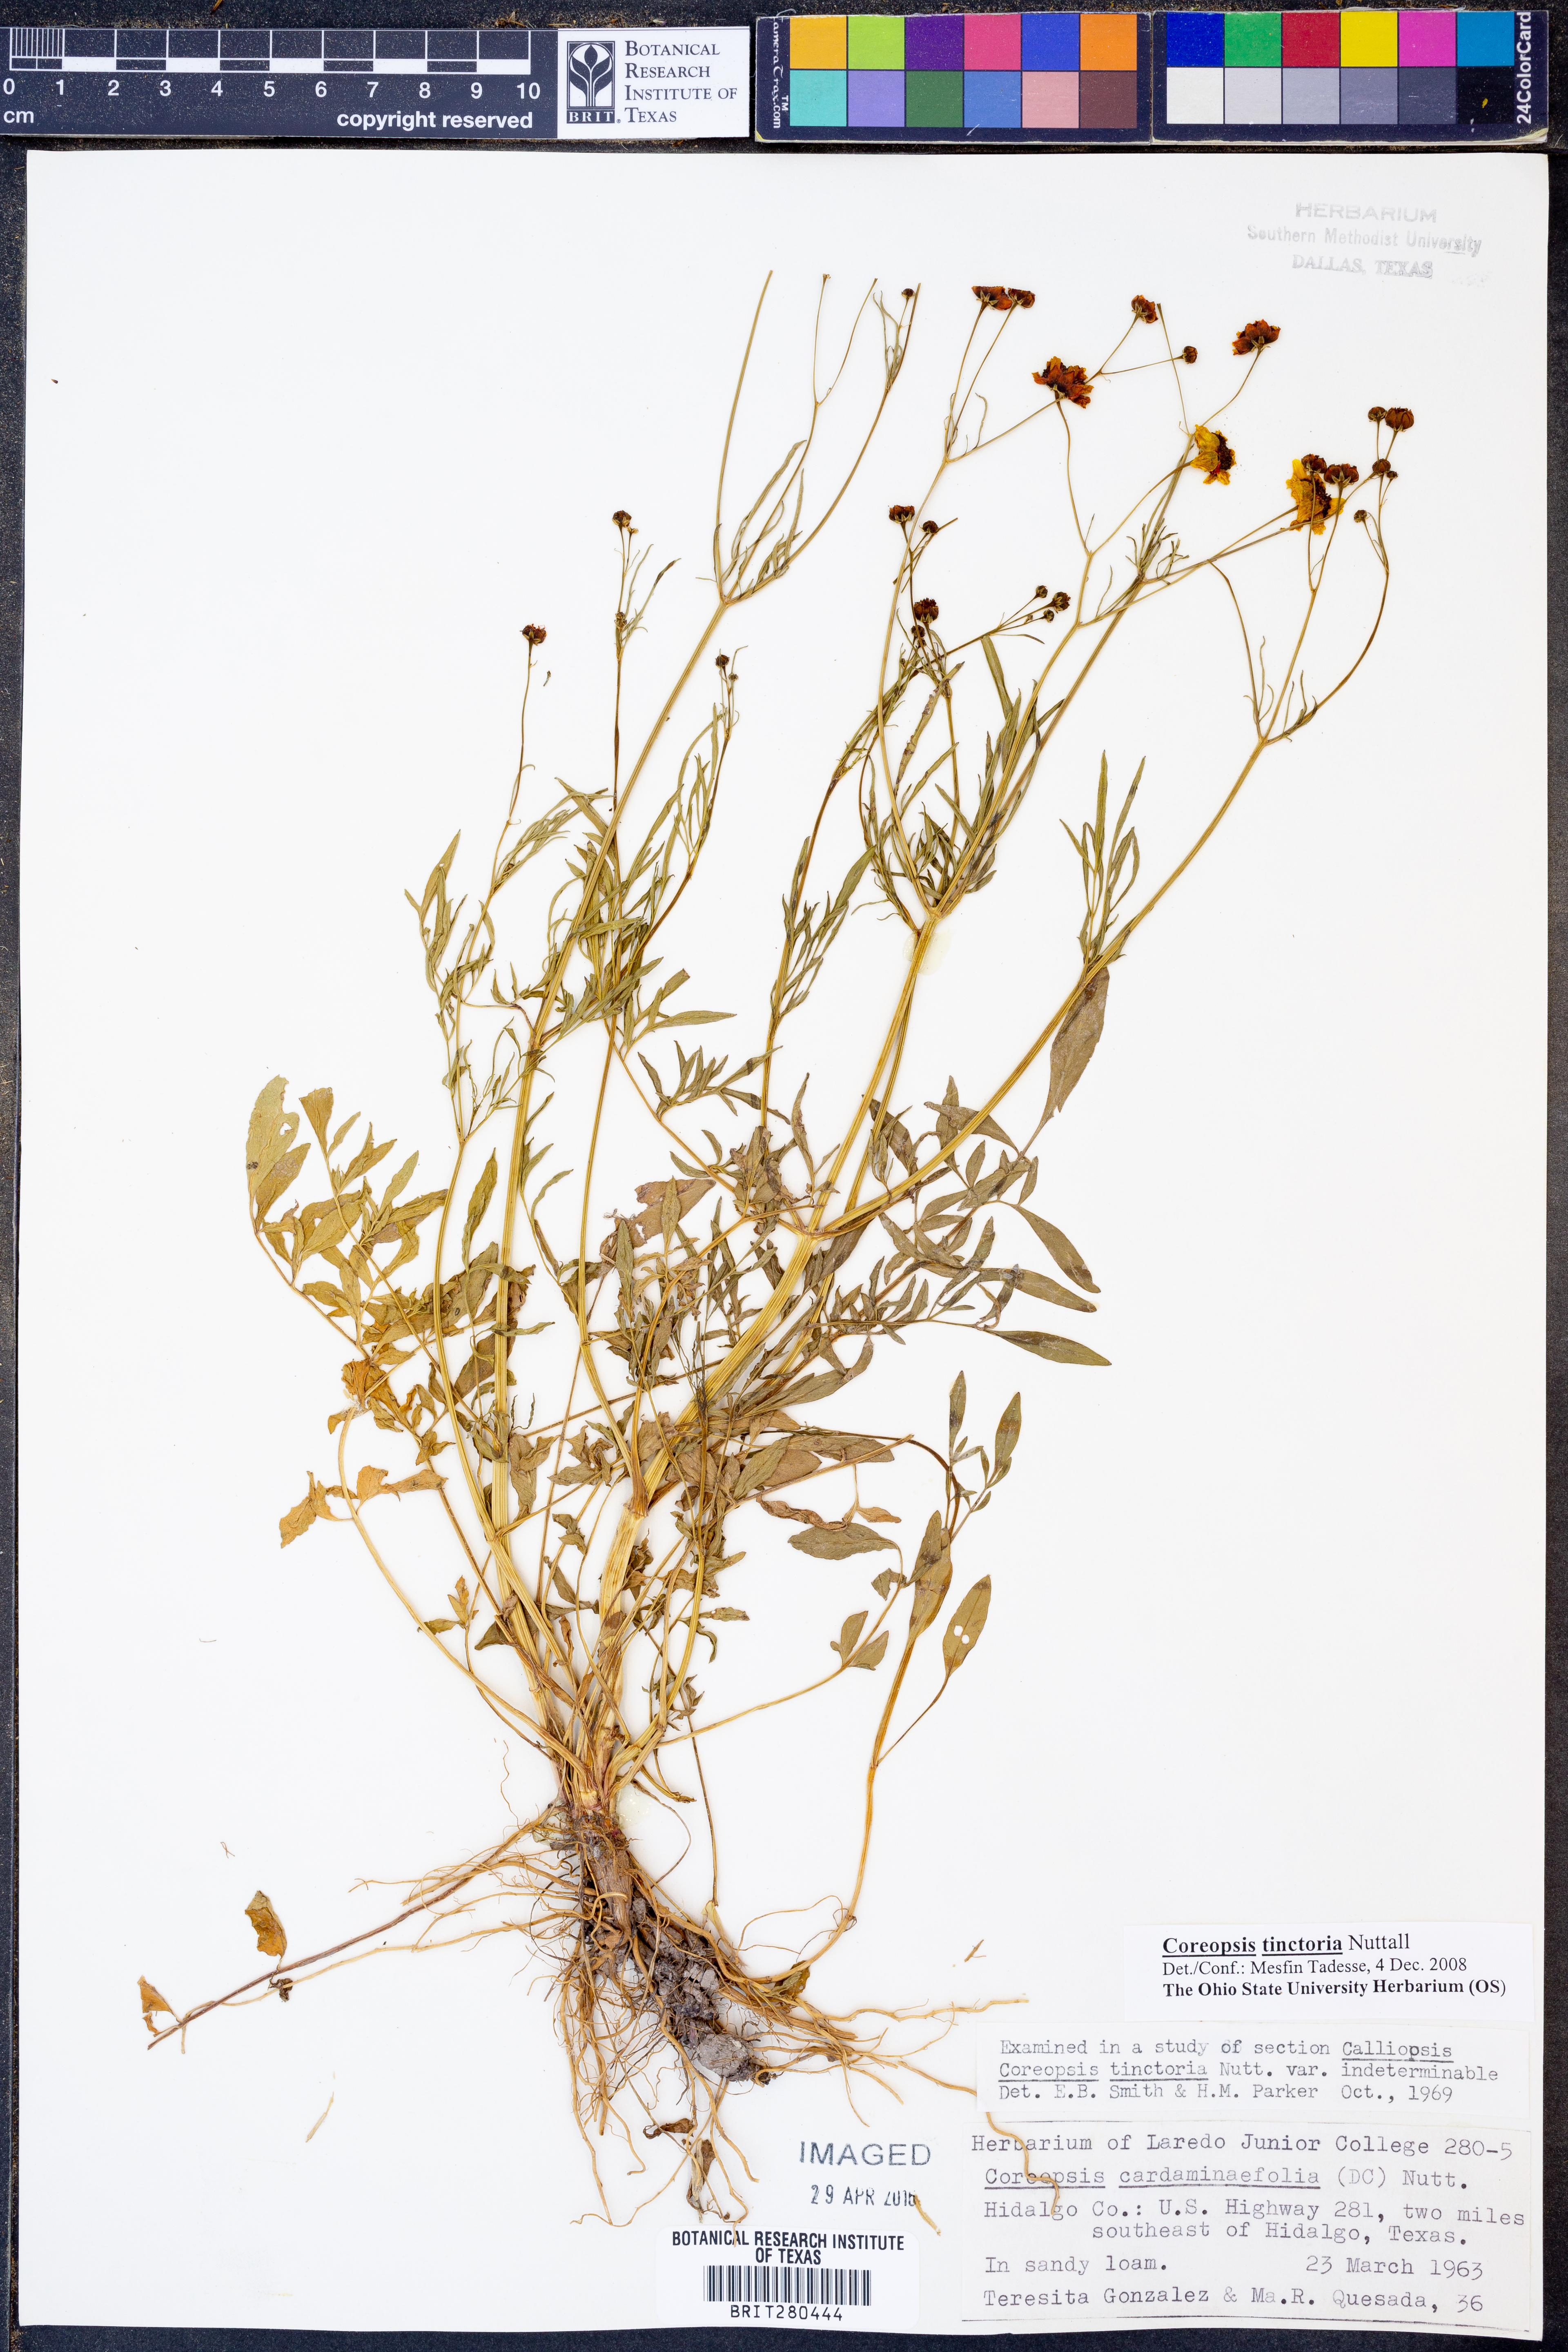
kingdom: Plantae
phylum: Tracheophyta
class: Magnoliopsida
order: Asterales
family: Asteraceae
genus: Coreopsis
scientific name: Coreopsis tinctoria
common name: Garden tickseed
